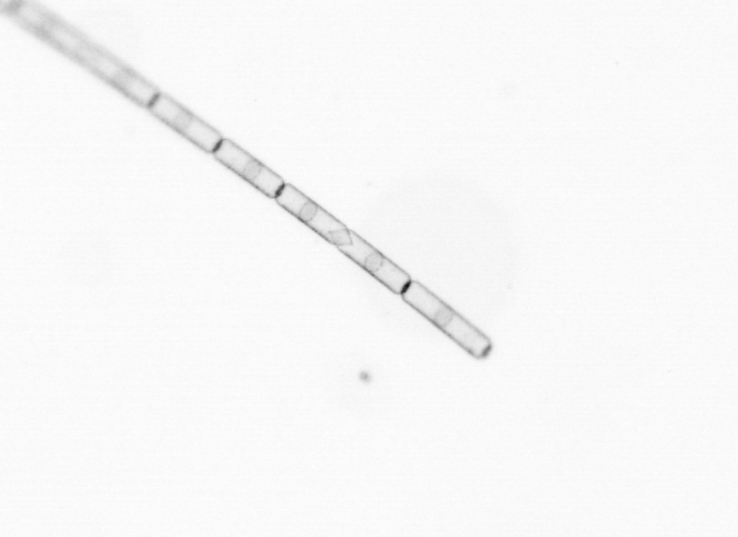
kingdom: Chromista
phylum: Ochrophyta
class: Bacillariophyceae
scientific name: Bacillariophyceae
